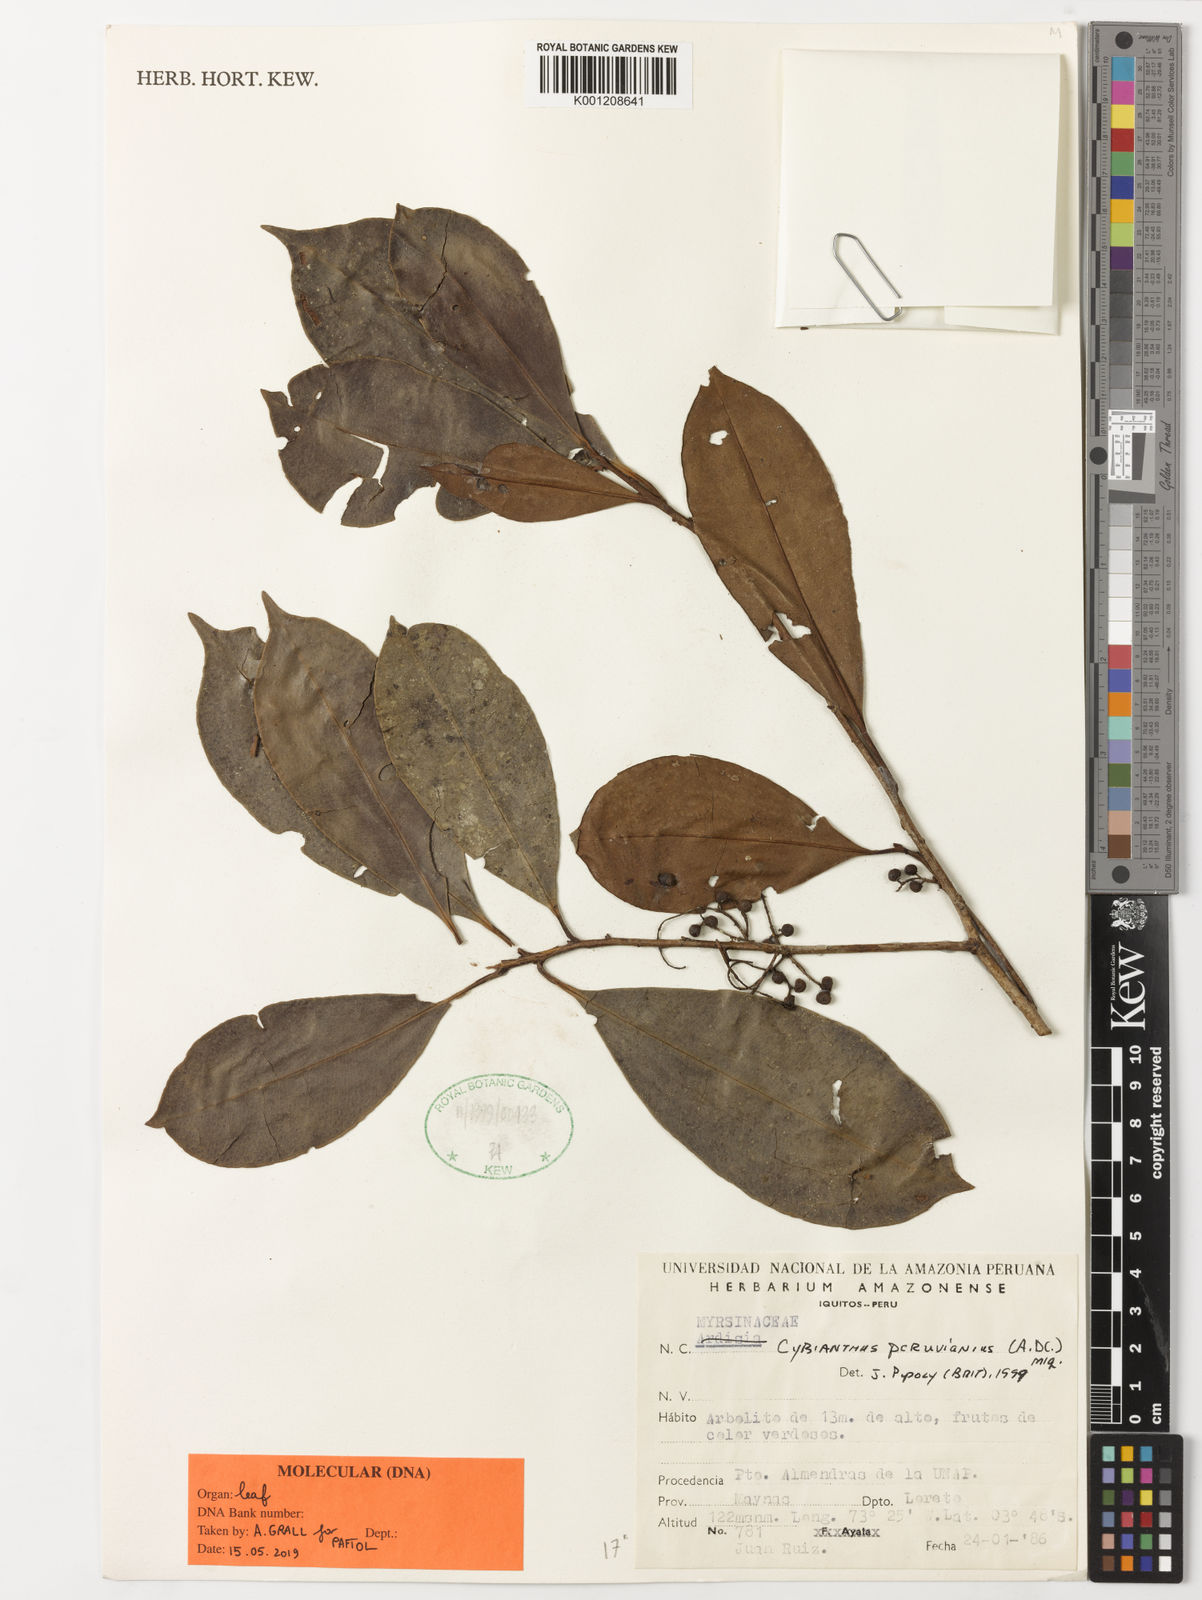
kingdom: Plantae
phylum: Tracheophyta
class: Magnoliopsida
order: Ericales
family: Primulaceae
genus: Cybianthus
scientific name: Cybianthus
